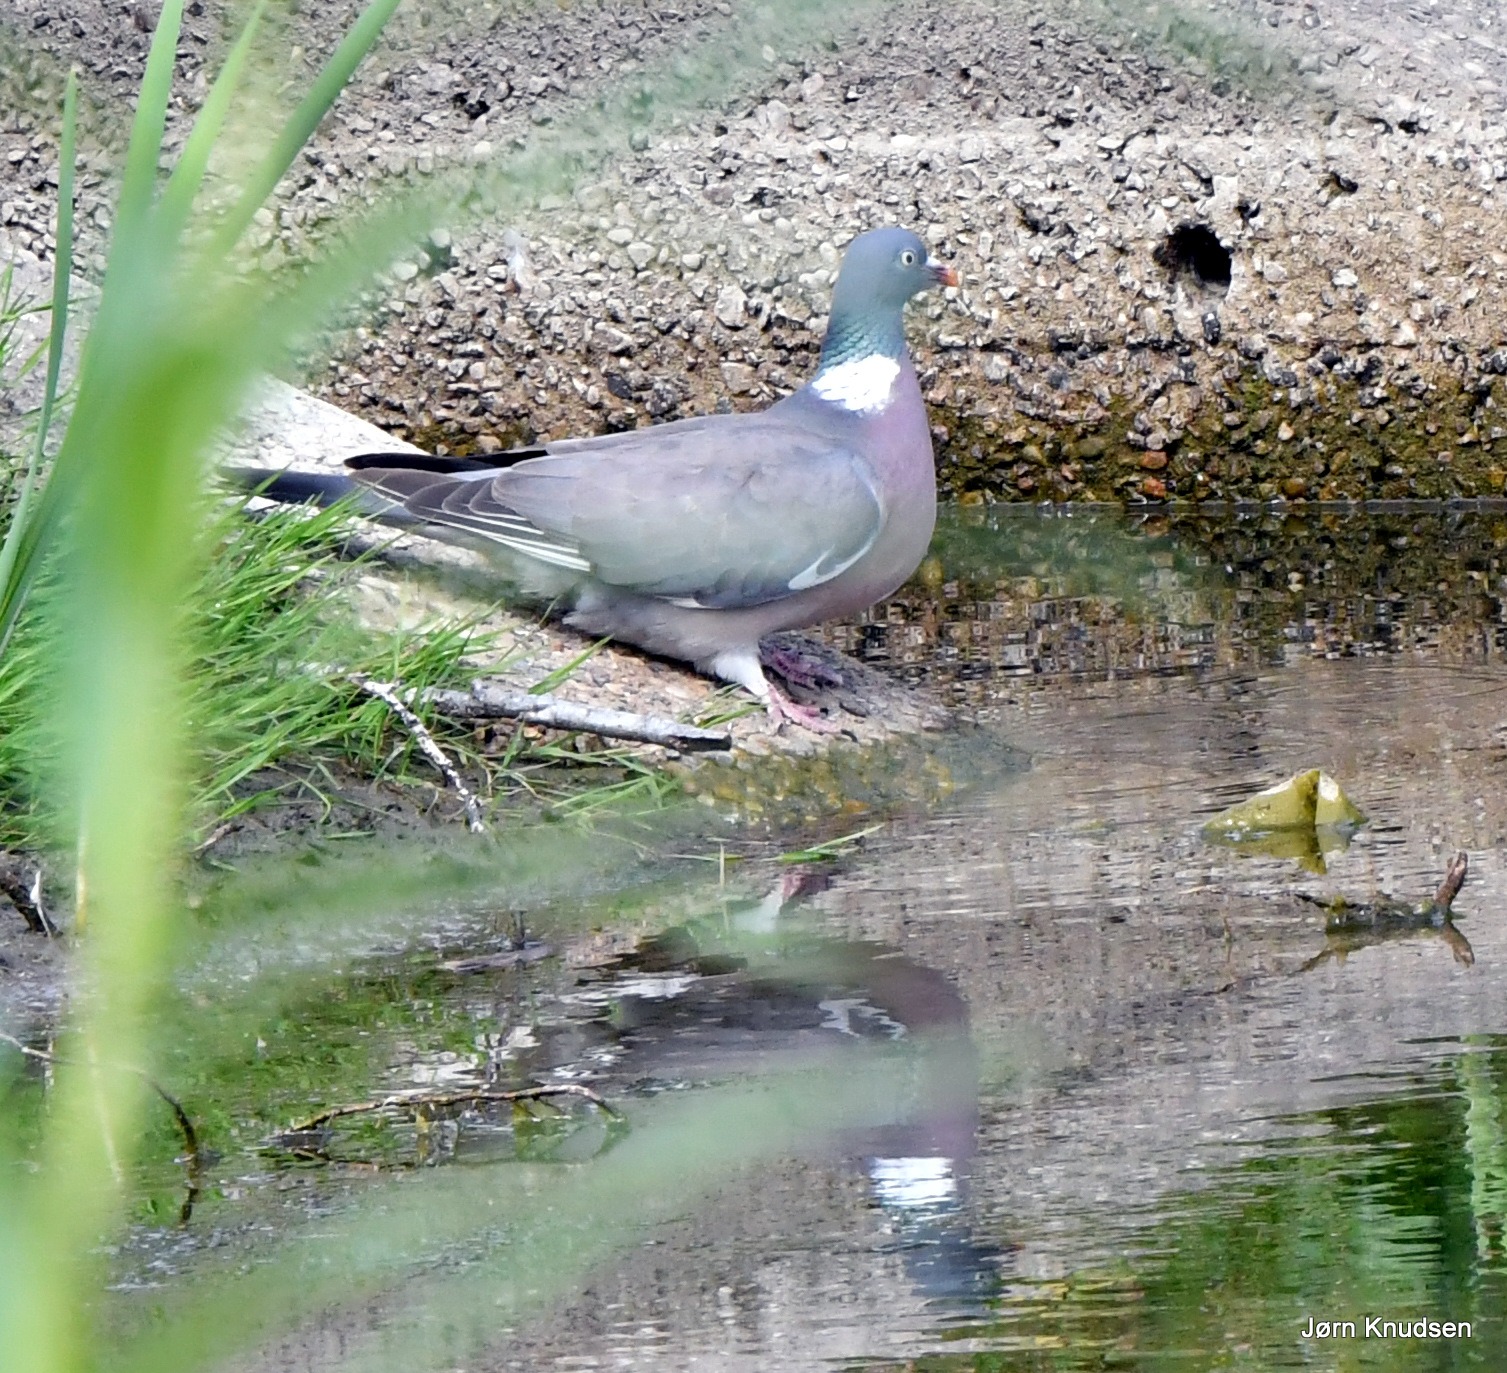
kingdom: Animalia
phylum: Chordata
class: Aves
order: Columbiformes
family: Columbidae
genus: Columba
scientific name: Columba palumbus
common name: Ringdue
